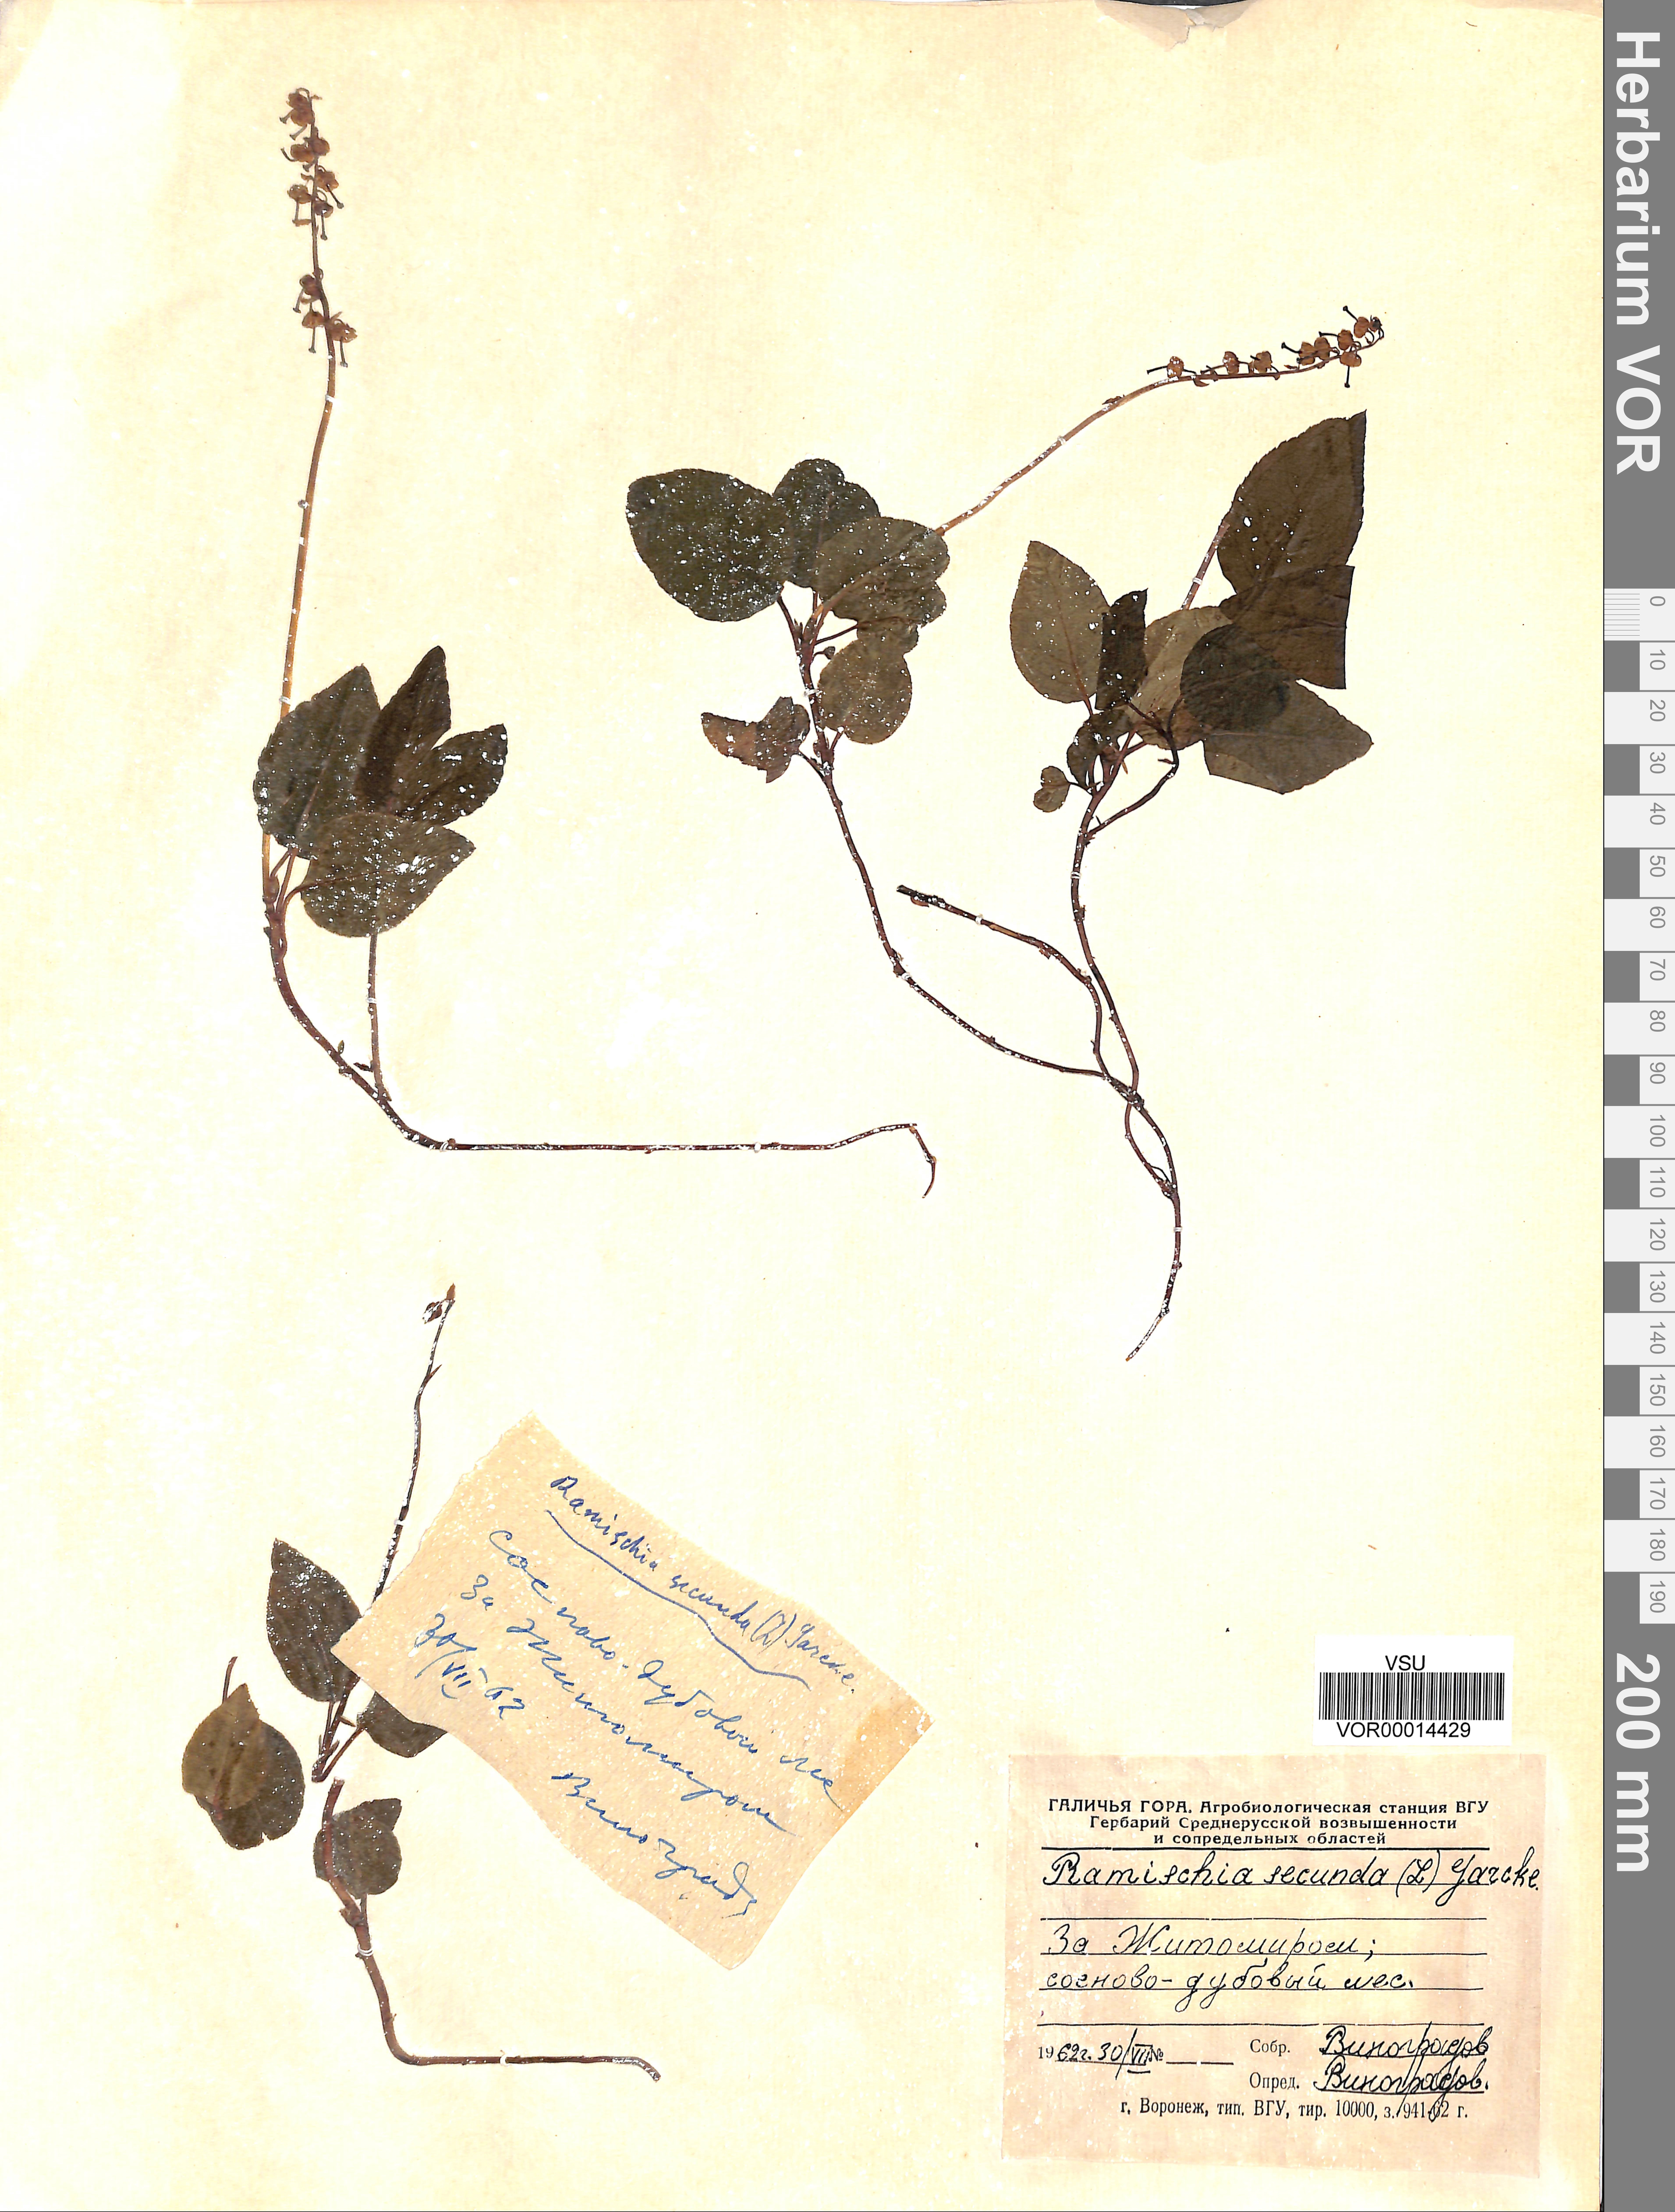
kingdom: Plantae
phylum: Tracheophyta
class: Magnoliopsida
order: Ericales
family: Ericaceae
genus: Orthilia
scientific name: Orthilia secunda
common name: One-sided orthilia
